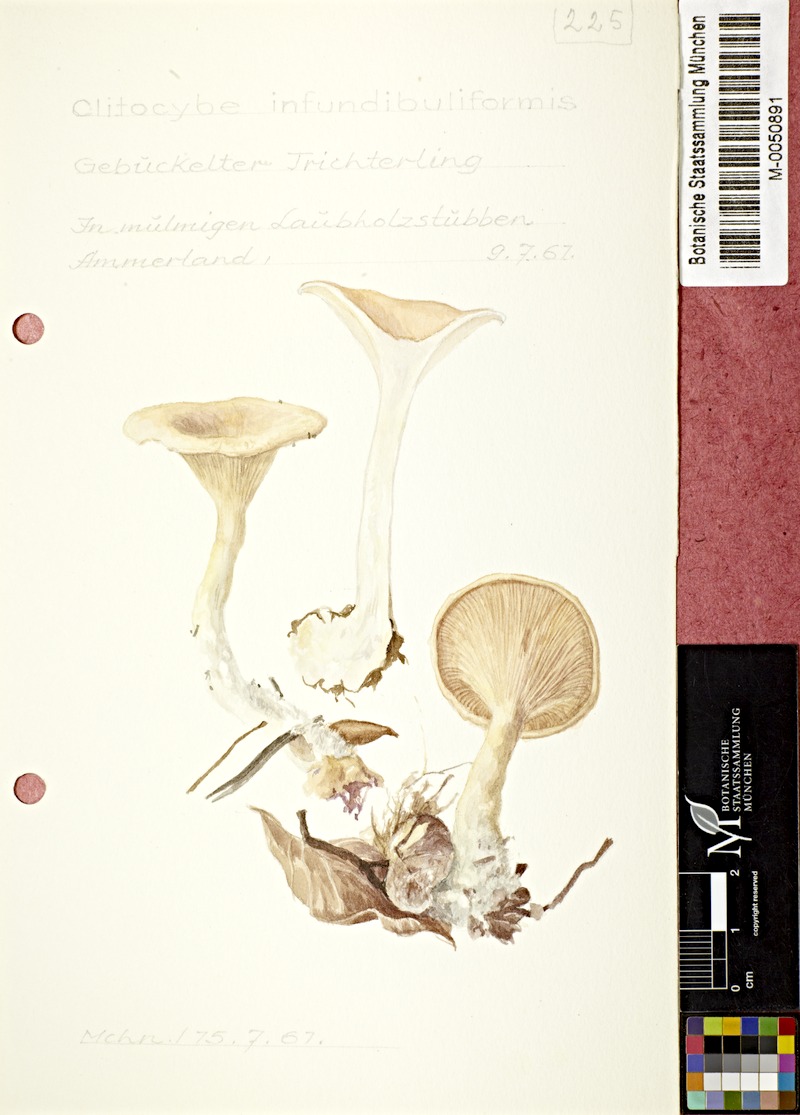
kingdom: Fungi
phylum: Basidiomycota
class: Agaricomycetes
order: Agaricales
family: Tricholomataceae
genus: Infundibulicybe
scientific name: Infundibulicybe gibba
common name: Common funnel
